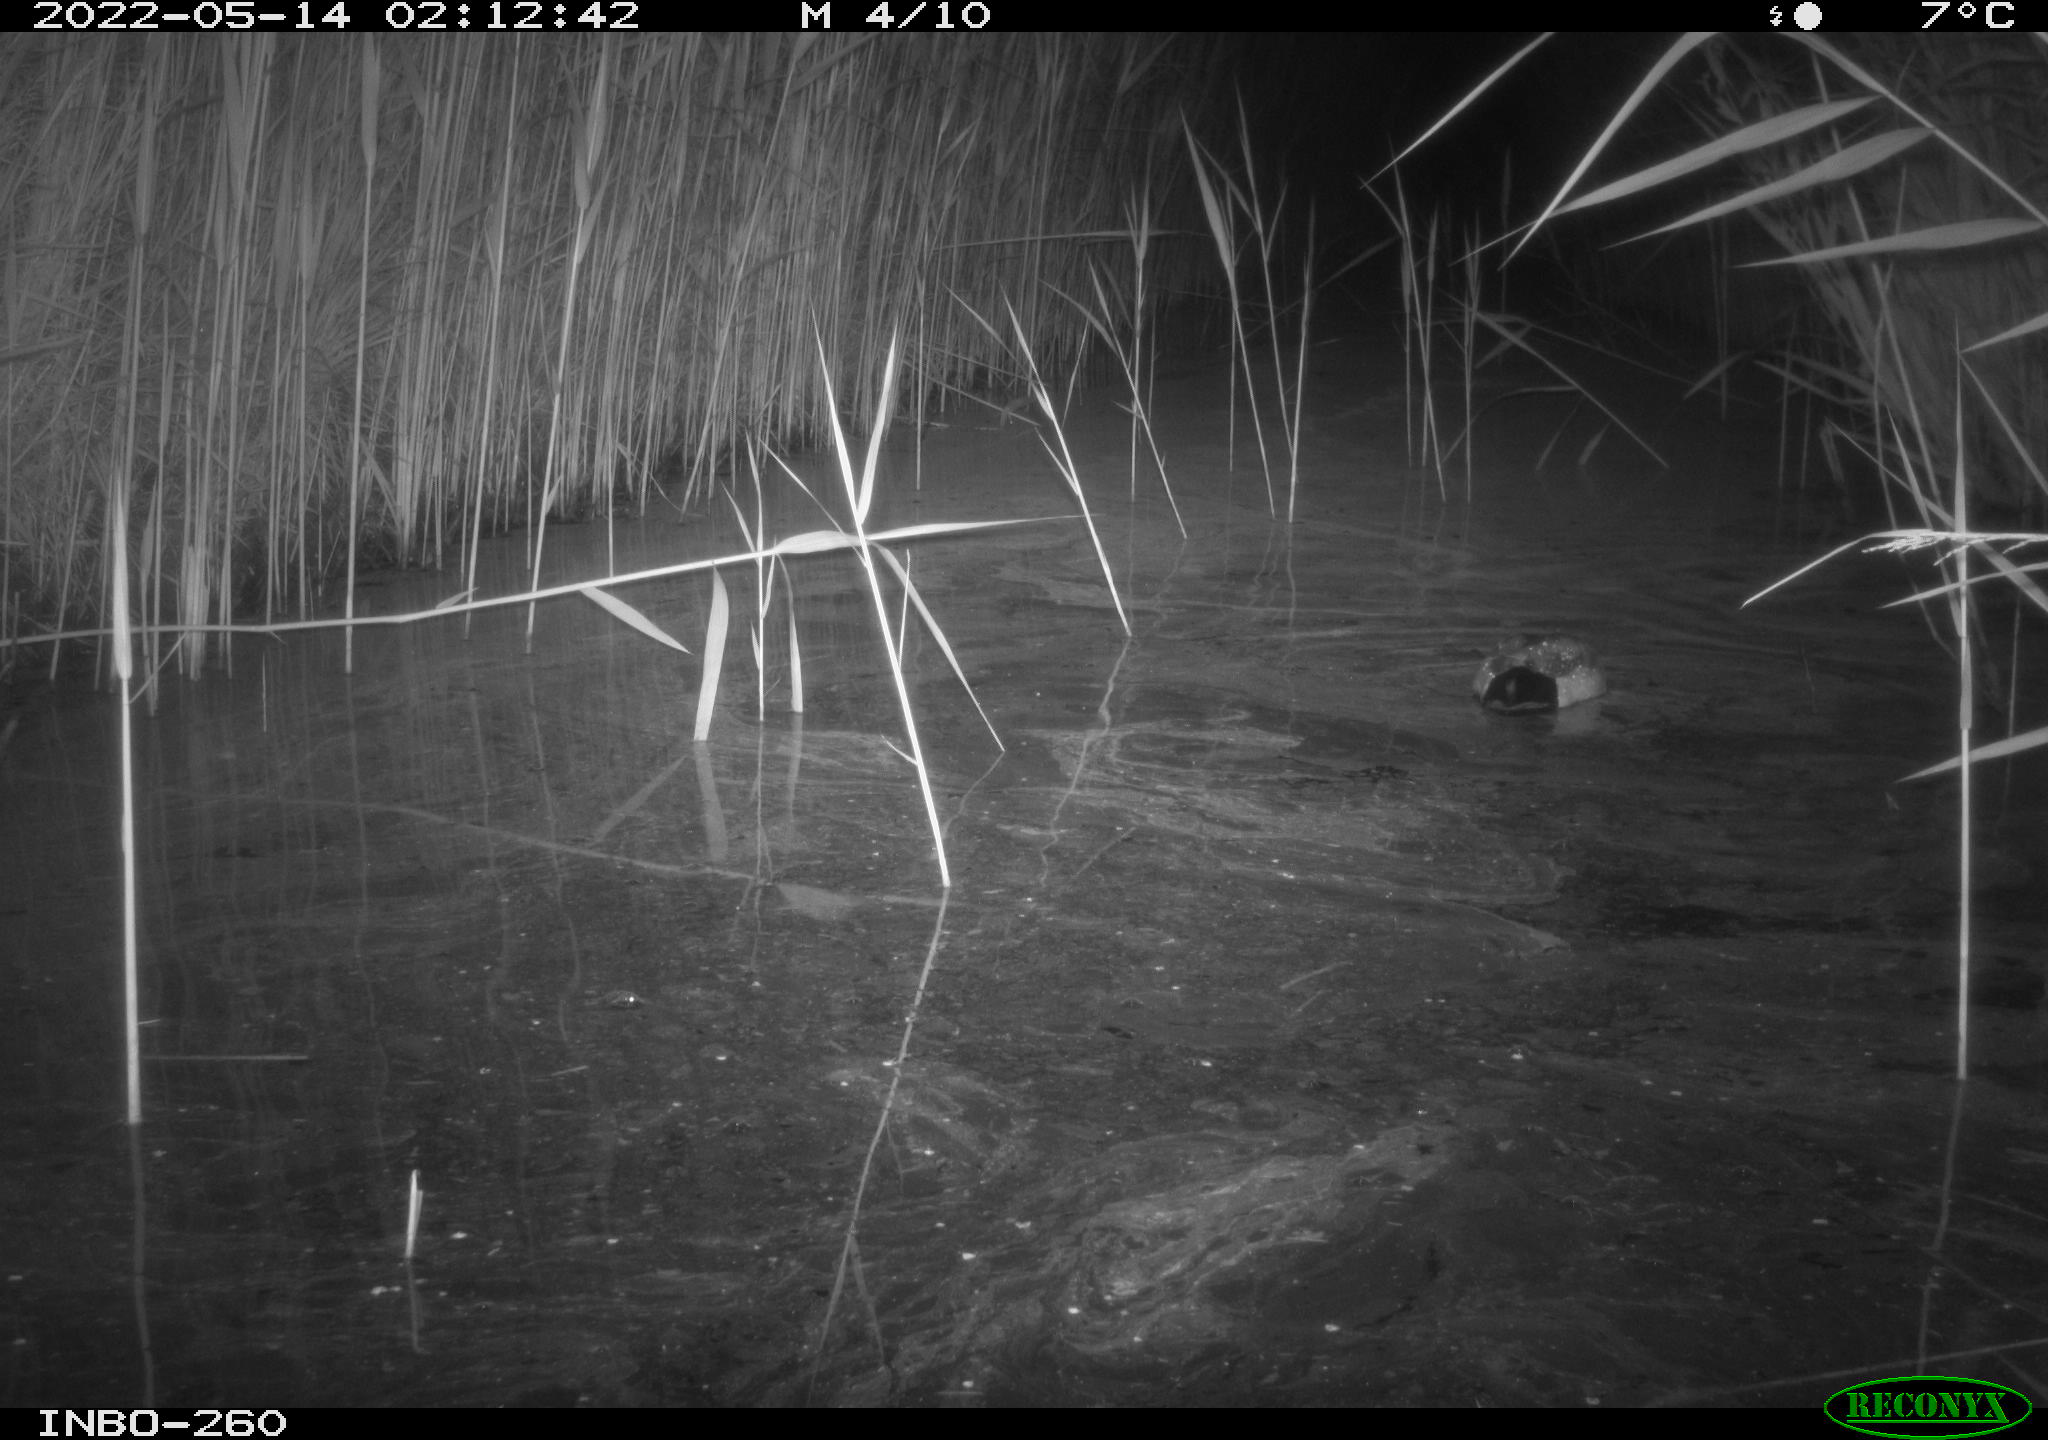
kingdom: Animalia
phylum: Chordata
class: Aves
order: Anseriformes
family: Anatidae
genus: Anas
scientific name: Anas platyrhynchos
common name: Mallard
